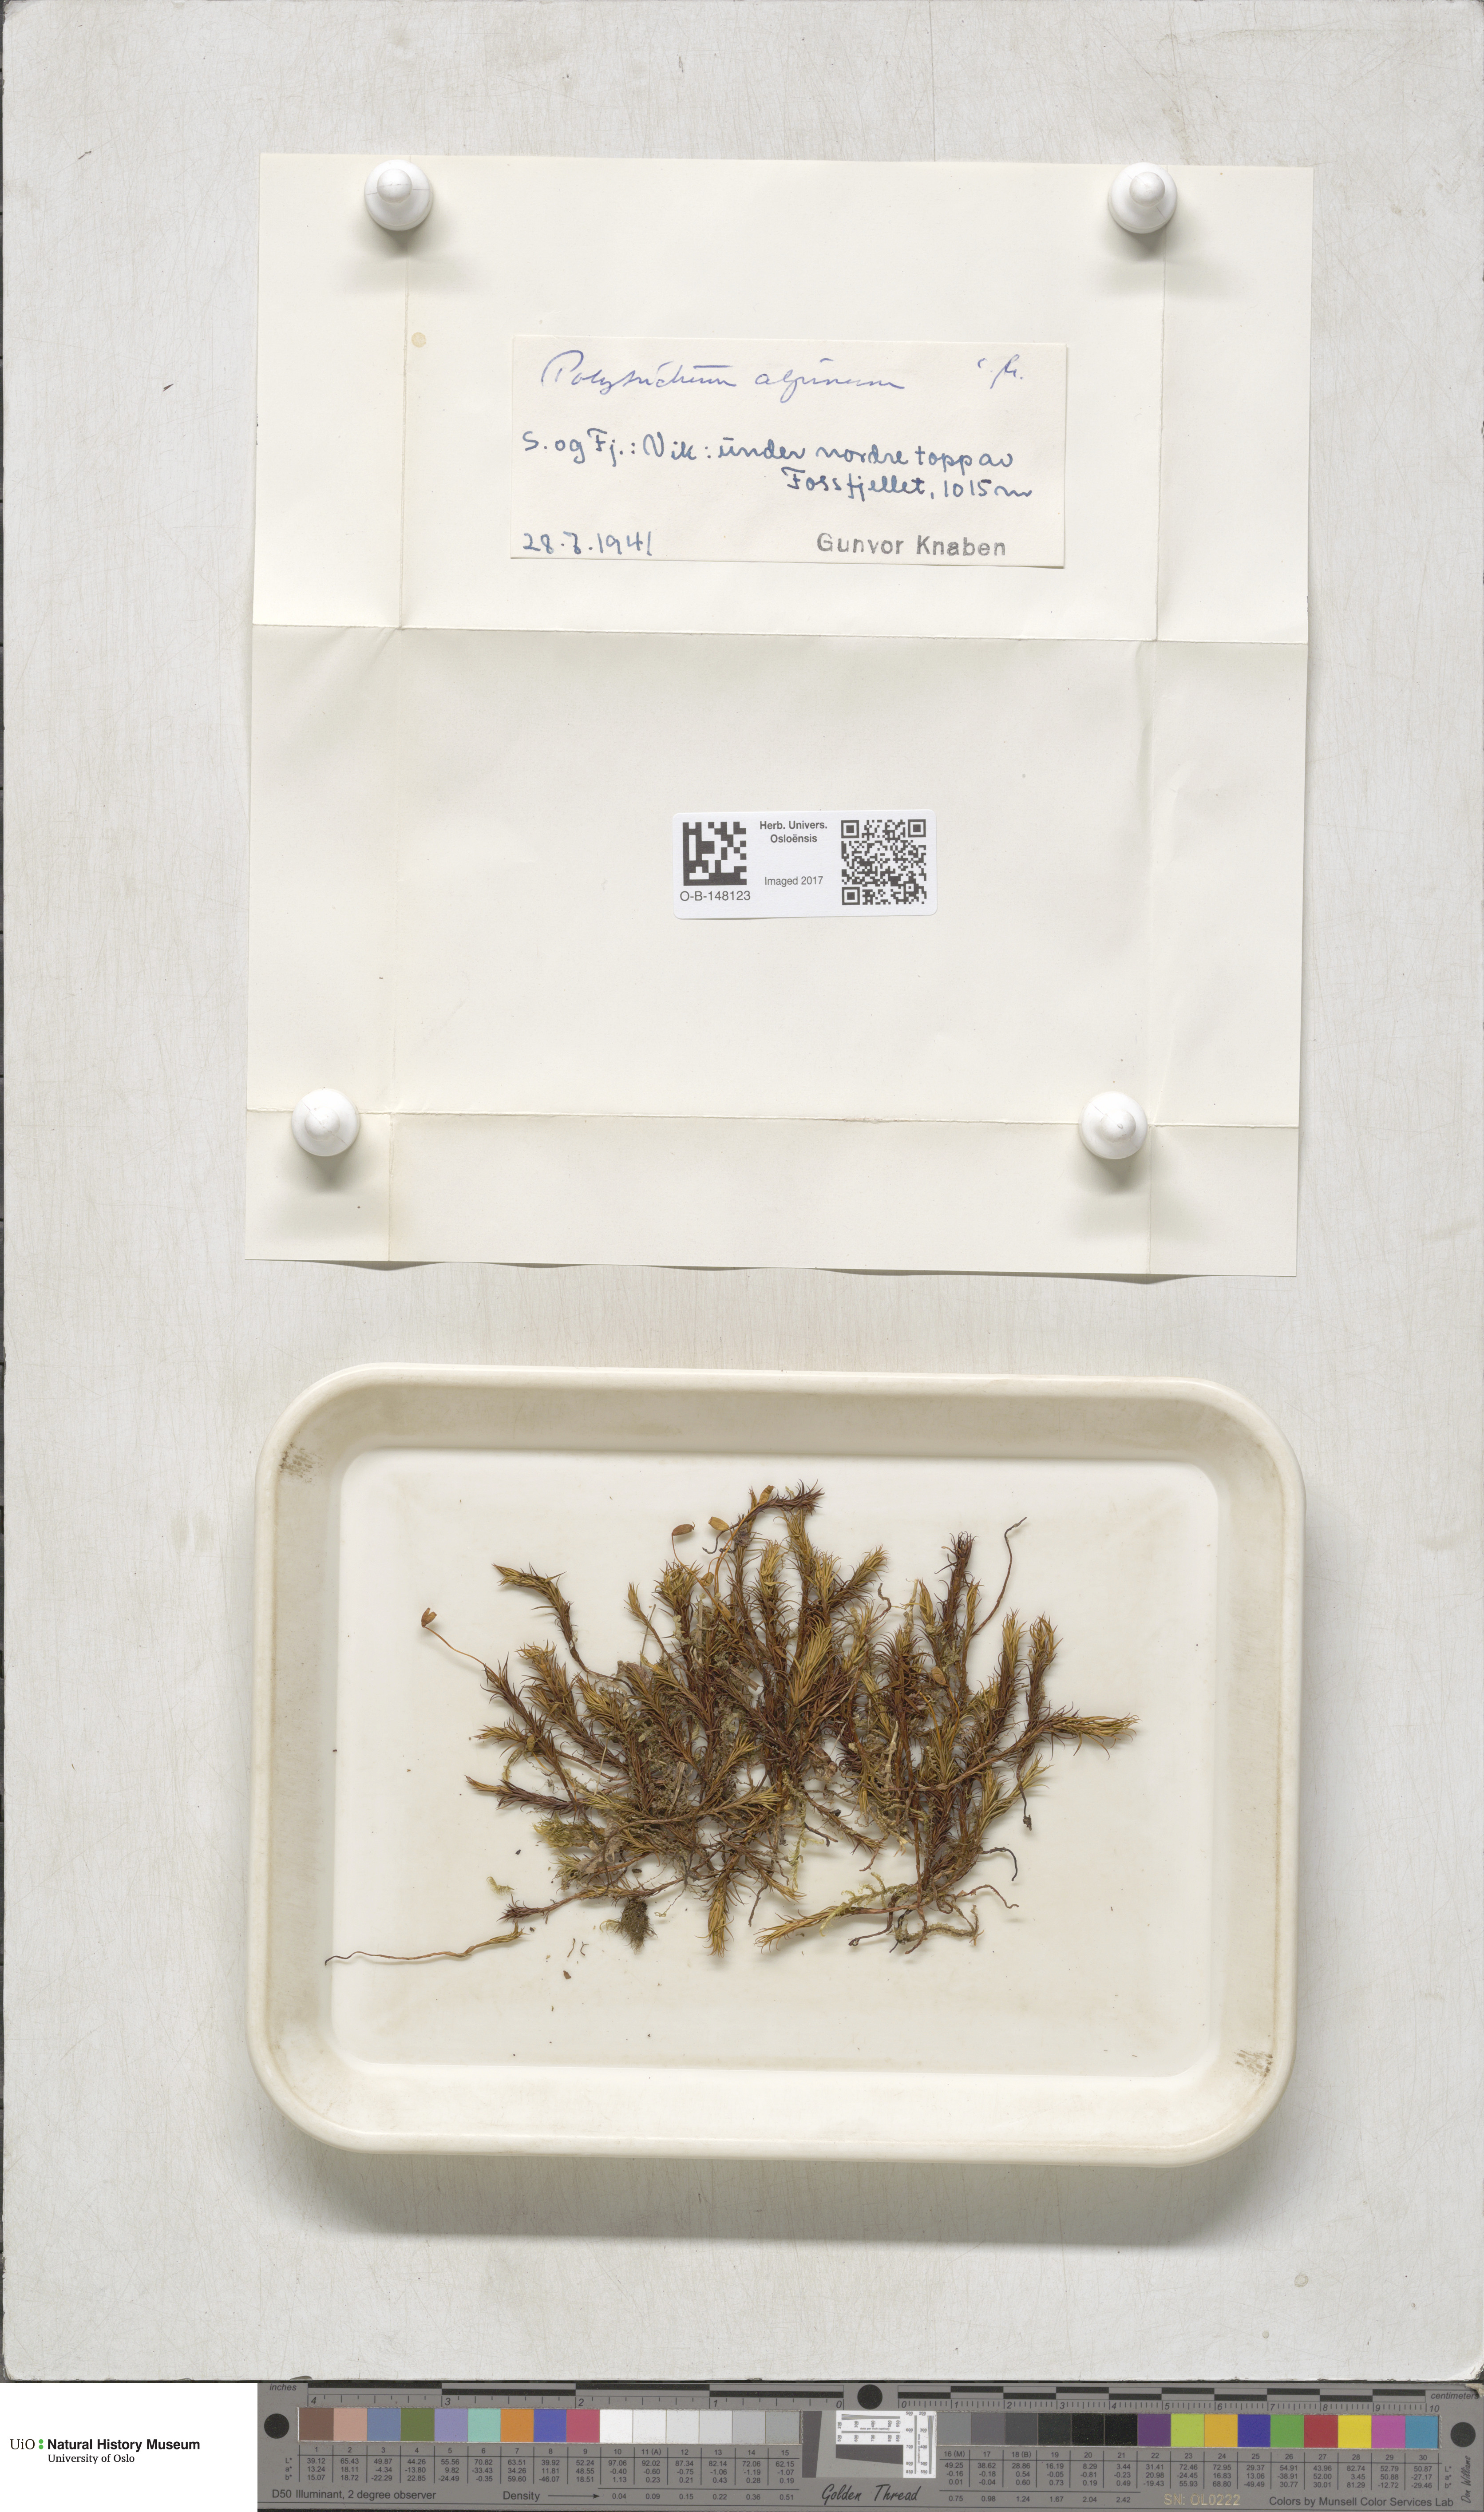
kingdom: Plantae
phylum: Bryophyta
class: Polytrichopsida
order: Polytrichales
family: Polytrichaceae
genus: Polytrichastrum
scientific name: Polytrichastrum alpinum
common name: Alpine haircap
